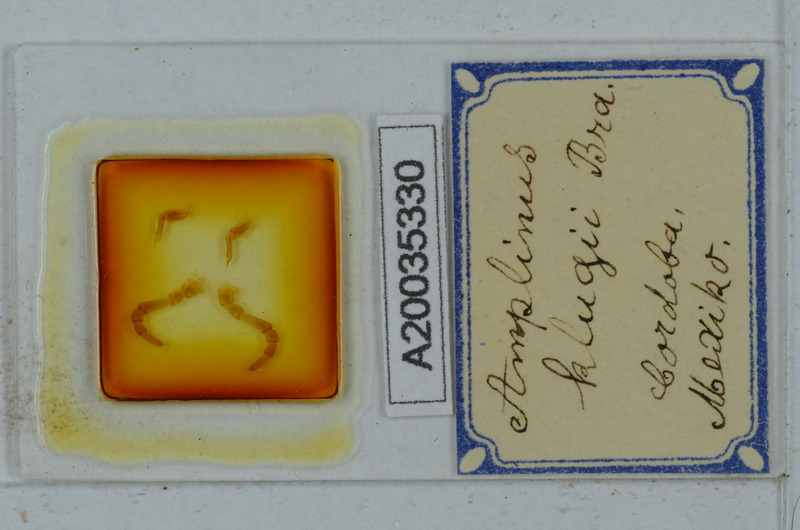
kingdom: Animalia
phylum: Arthropoda
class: Diplopoda
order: Polydesmida
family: Aphelidesmidae
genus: Amplinus
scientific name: Amplinus klugii
